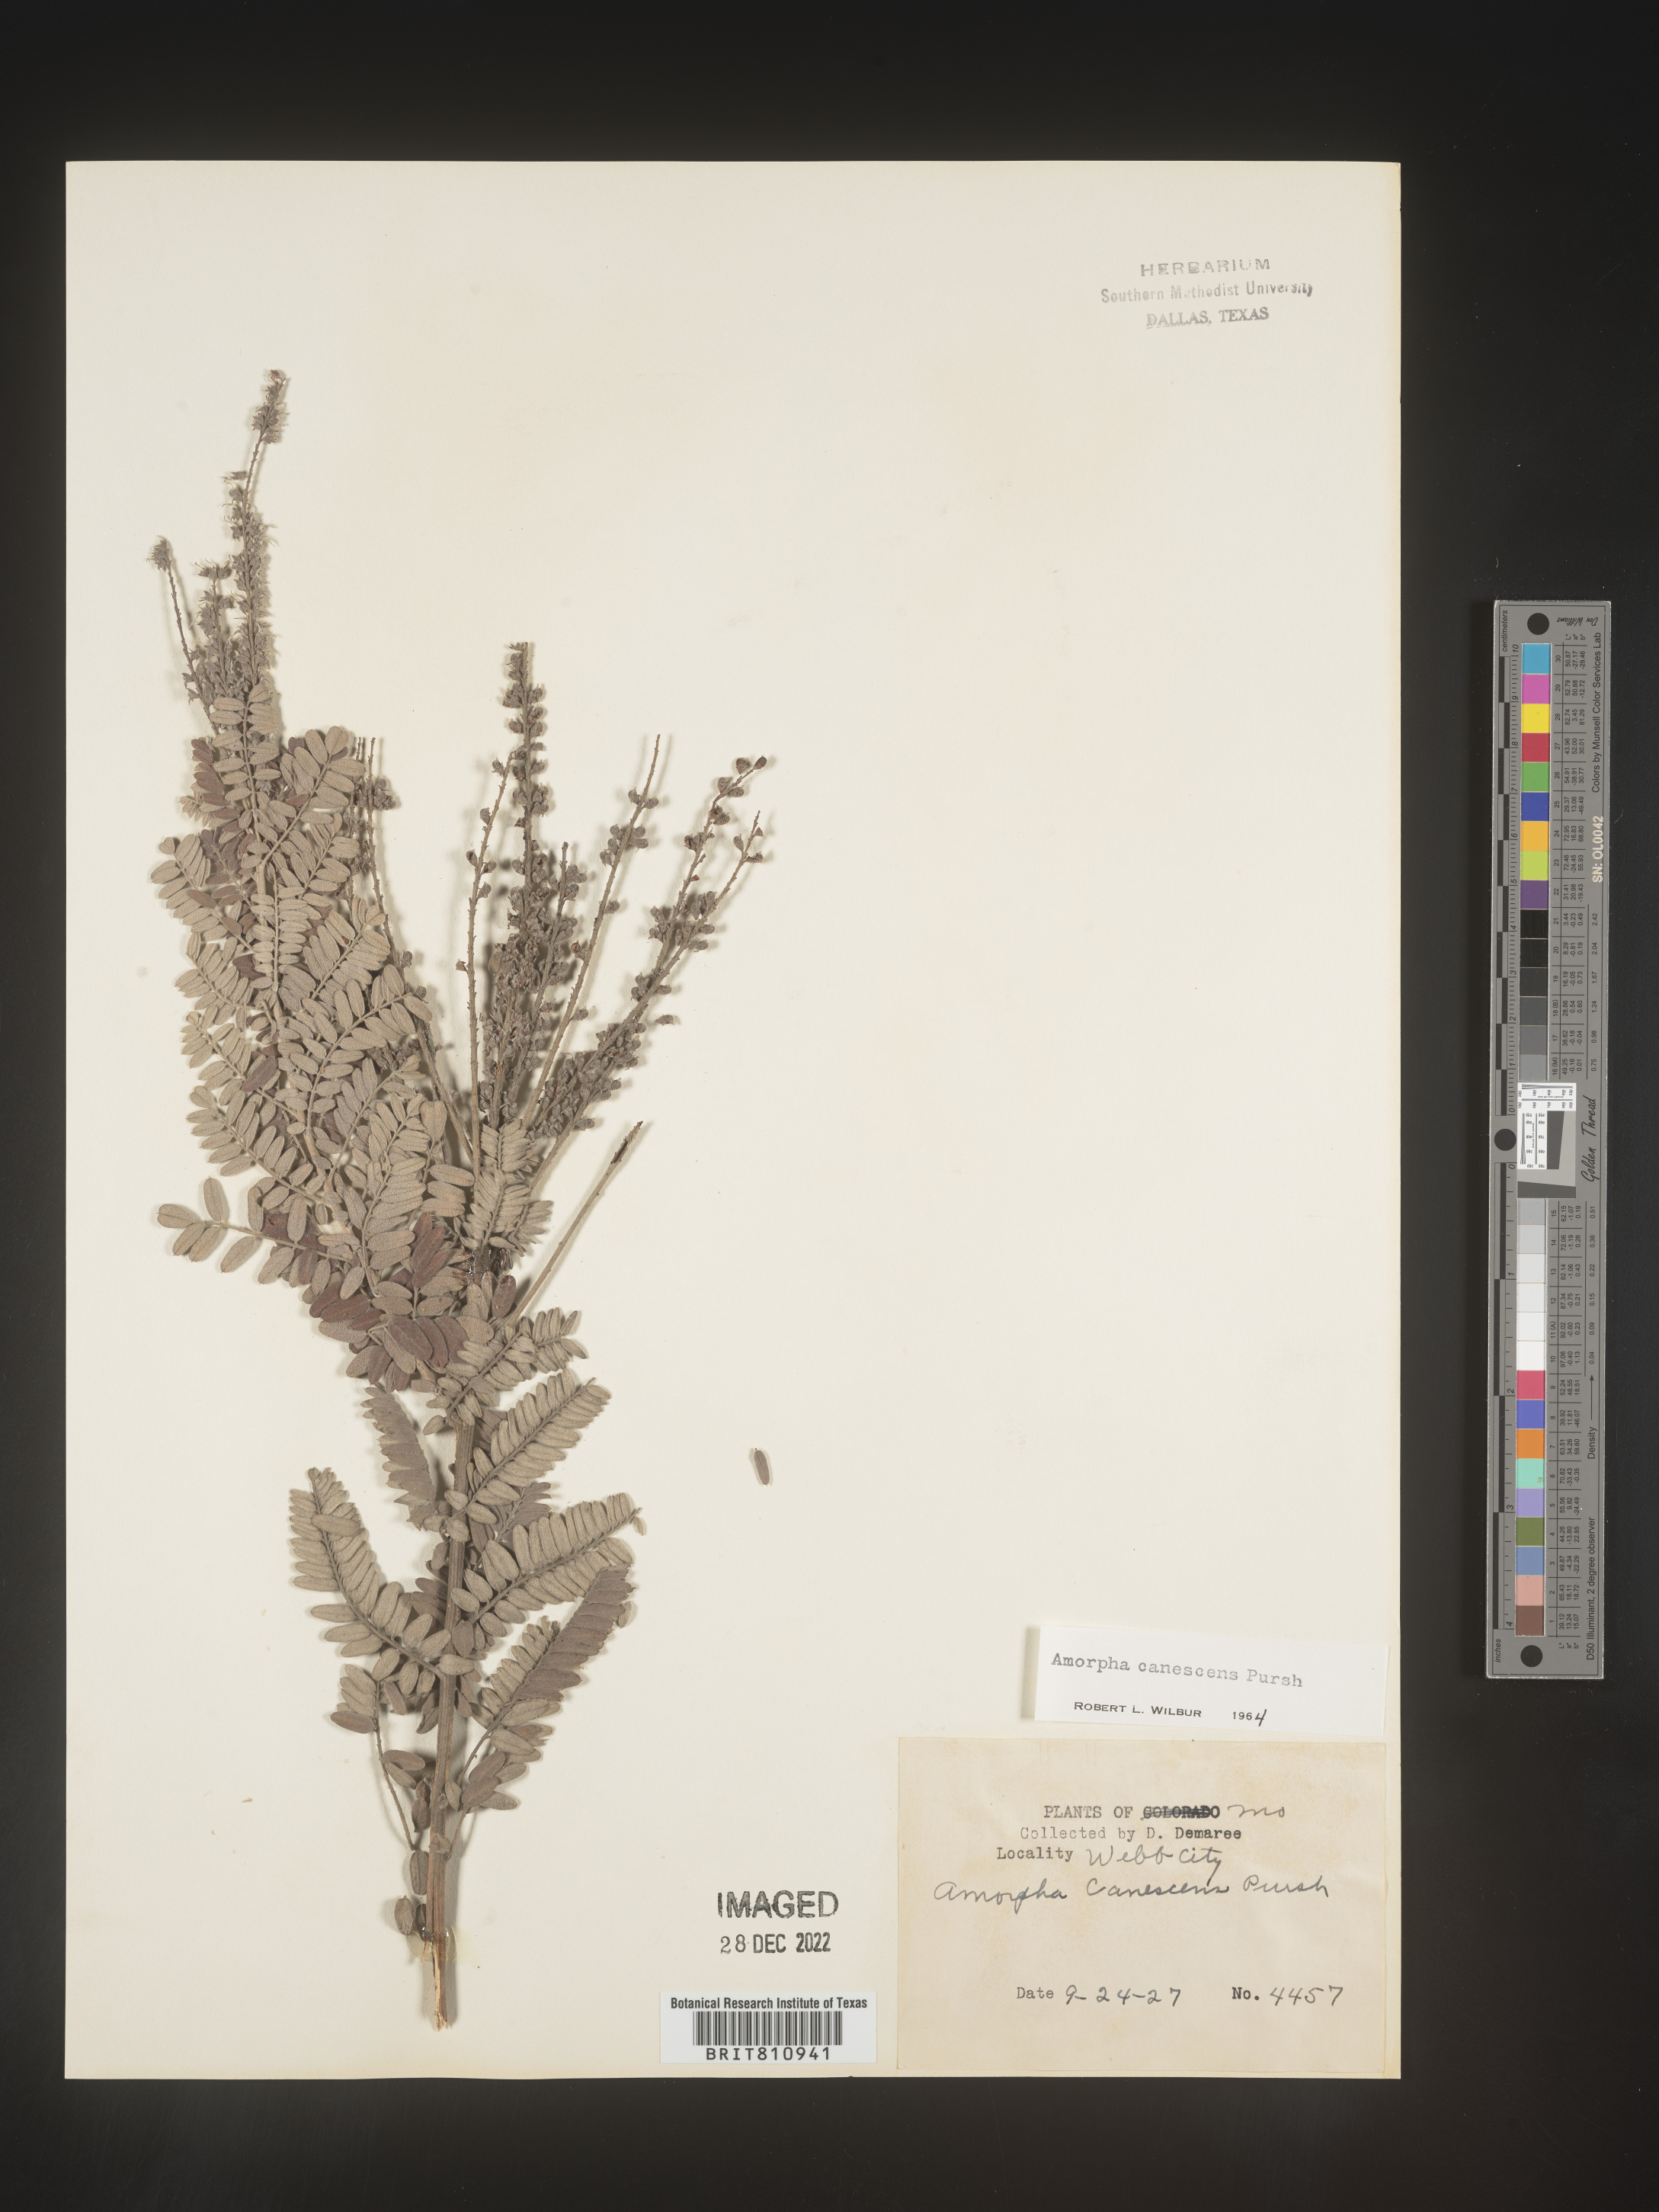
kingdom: Plantae
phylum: Tracheophyta
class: Magnoliopsida
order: Fabales
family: Fabaceae
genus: Amorpha
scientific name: Amorpha canescens
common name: Leadplant
